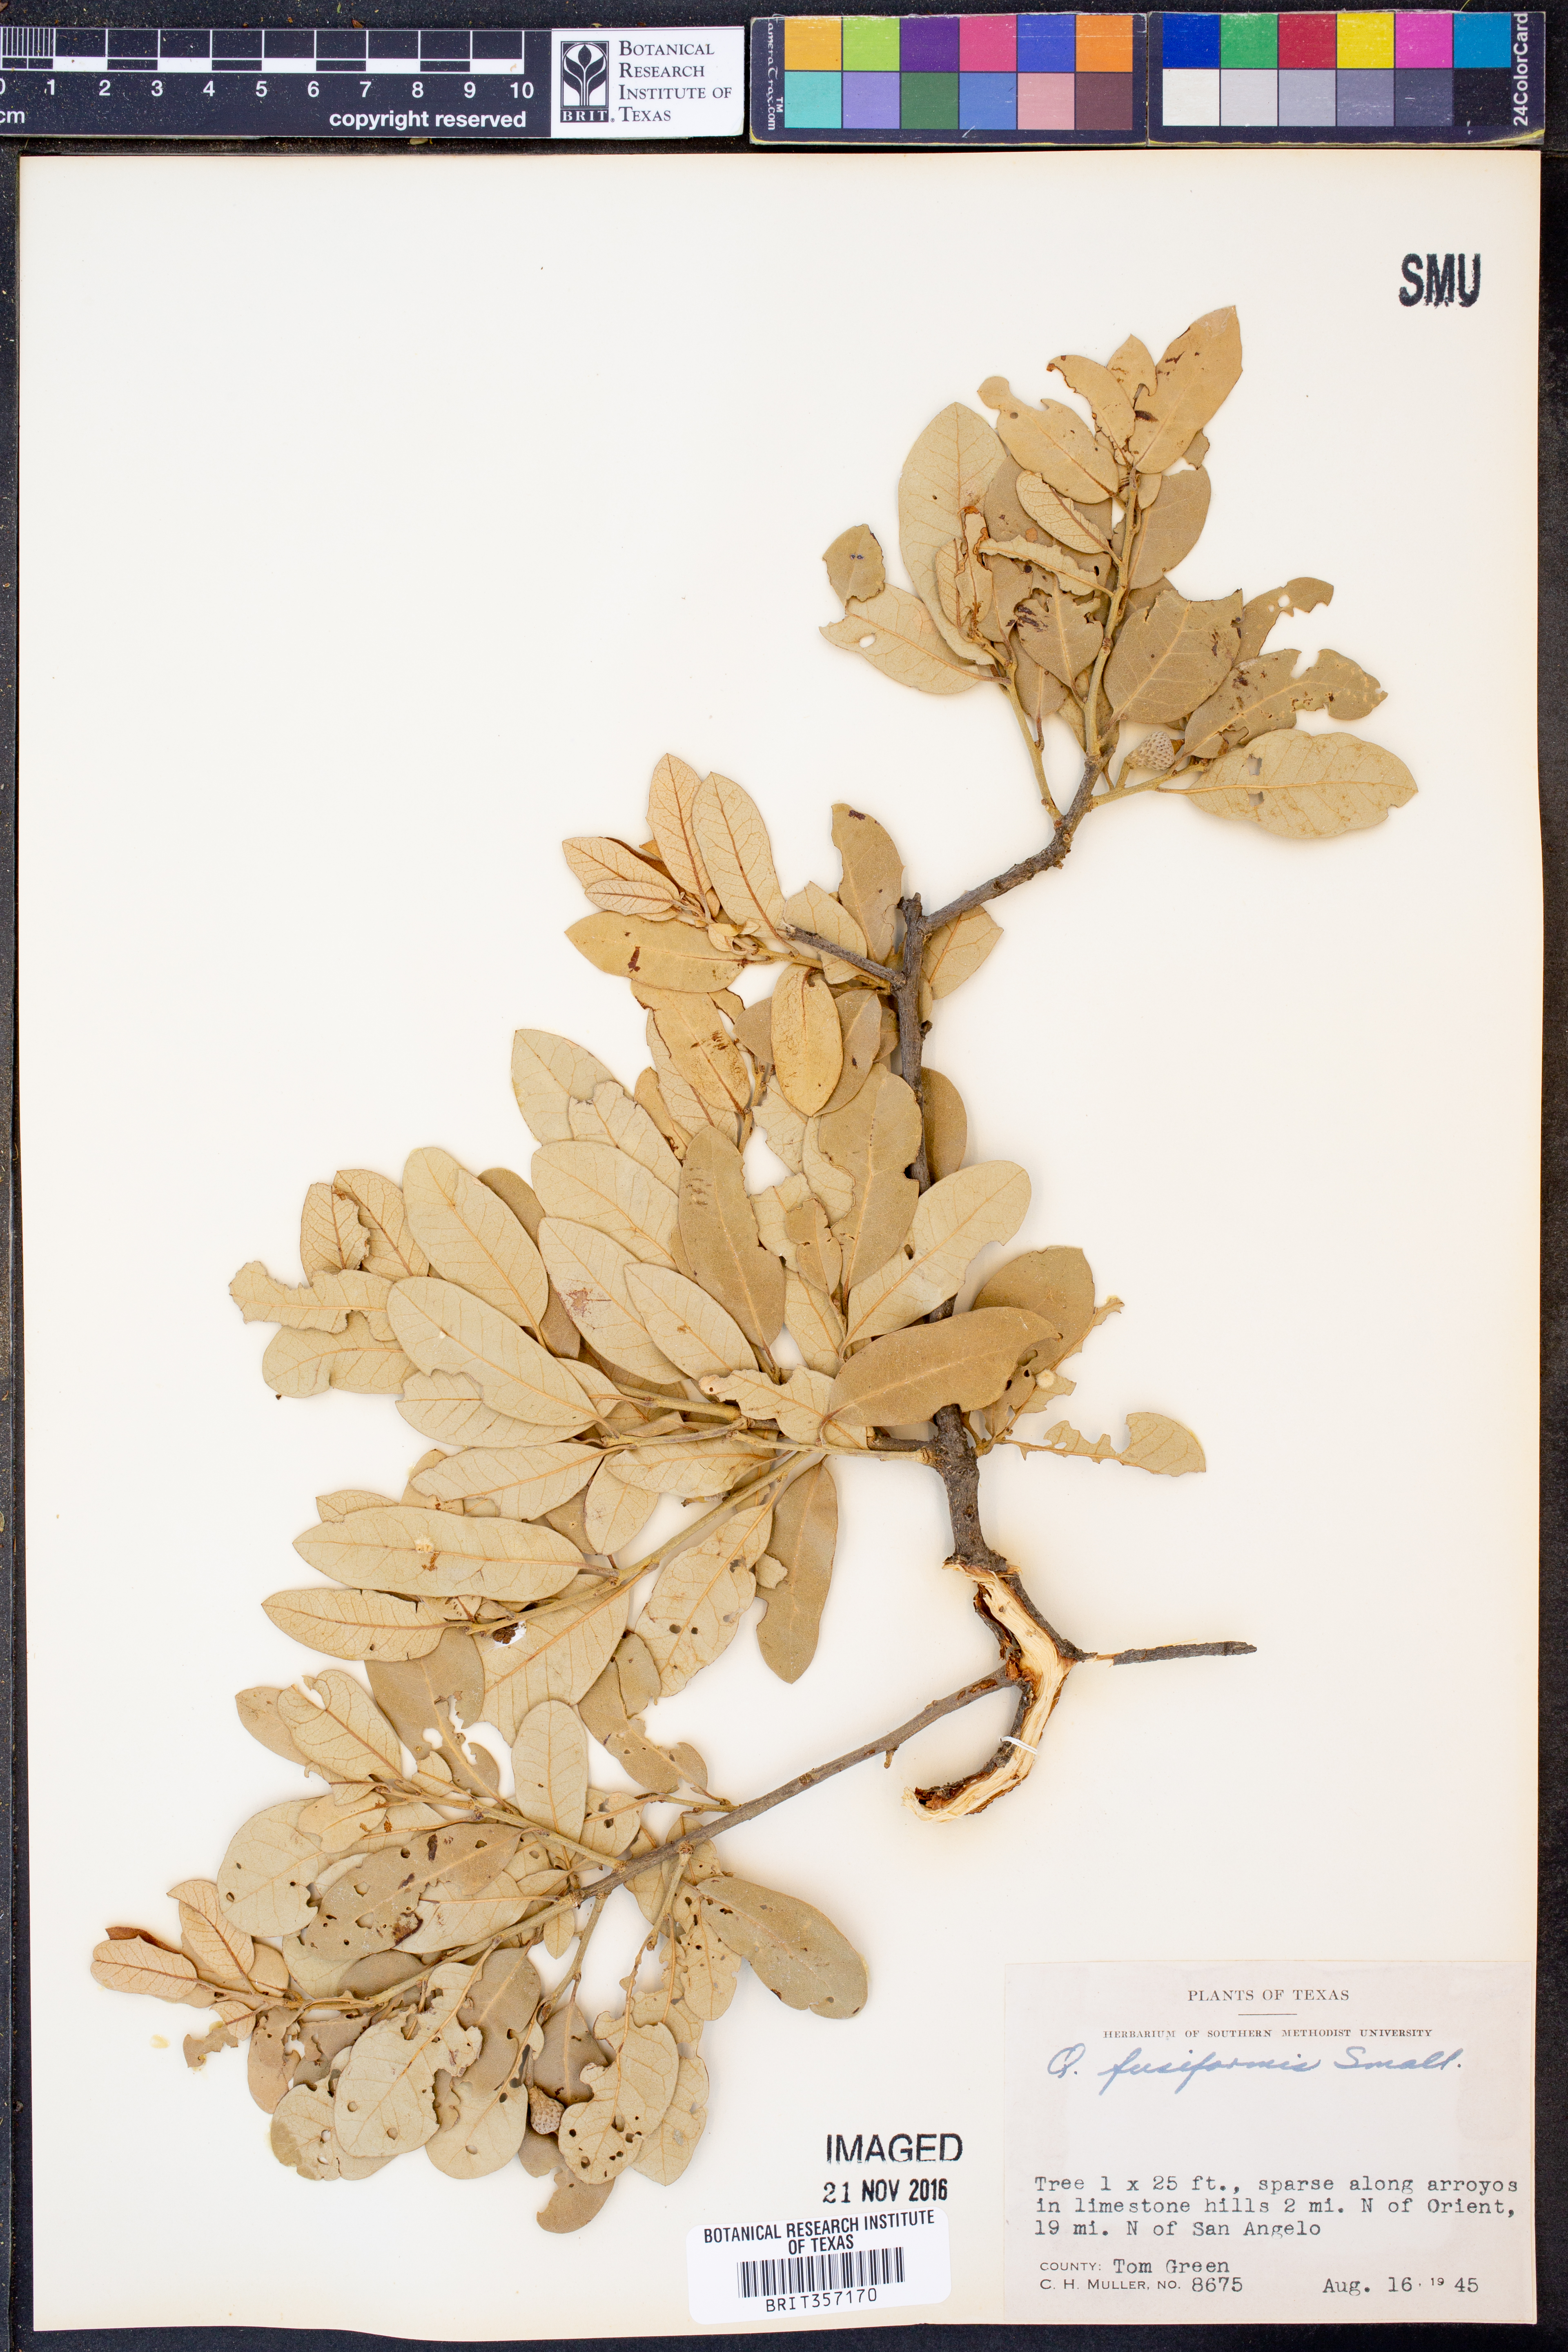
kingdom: Plantae
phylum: Tracheophyta
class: Magnoliopsida
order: Fagales
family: Fagaceae
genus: Quercus
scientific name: Quercus fusiformis
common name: Texas live oak
